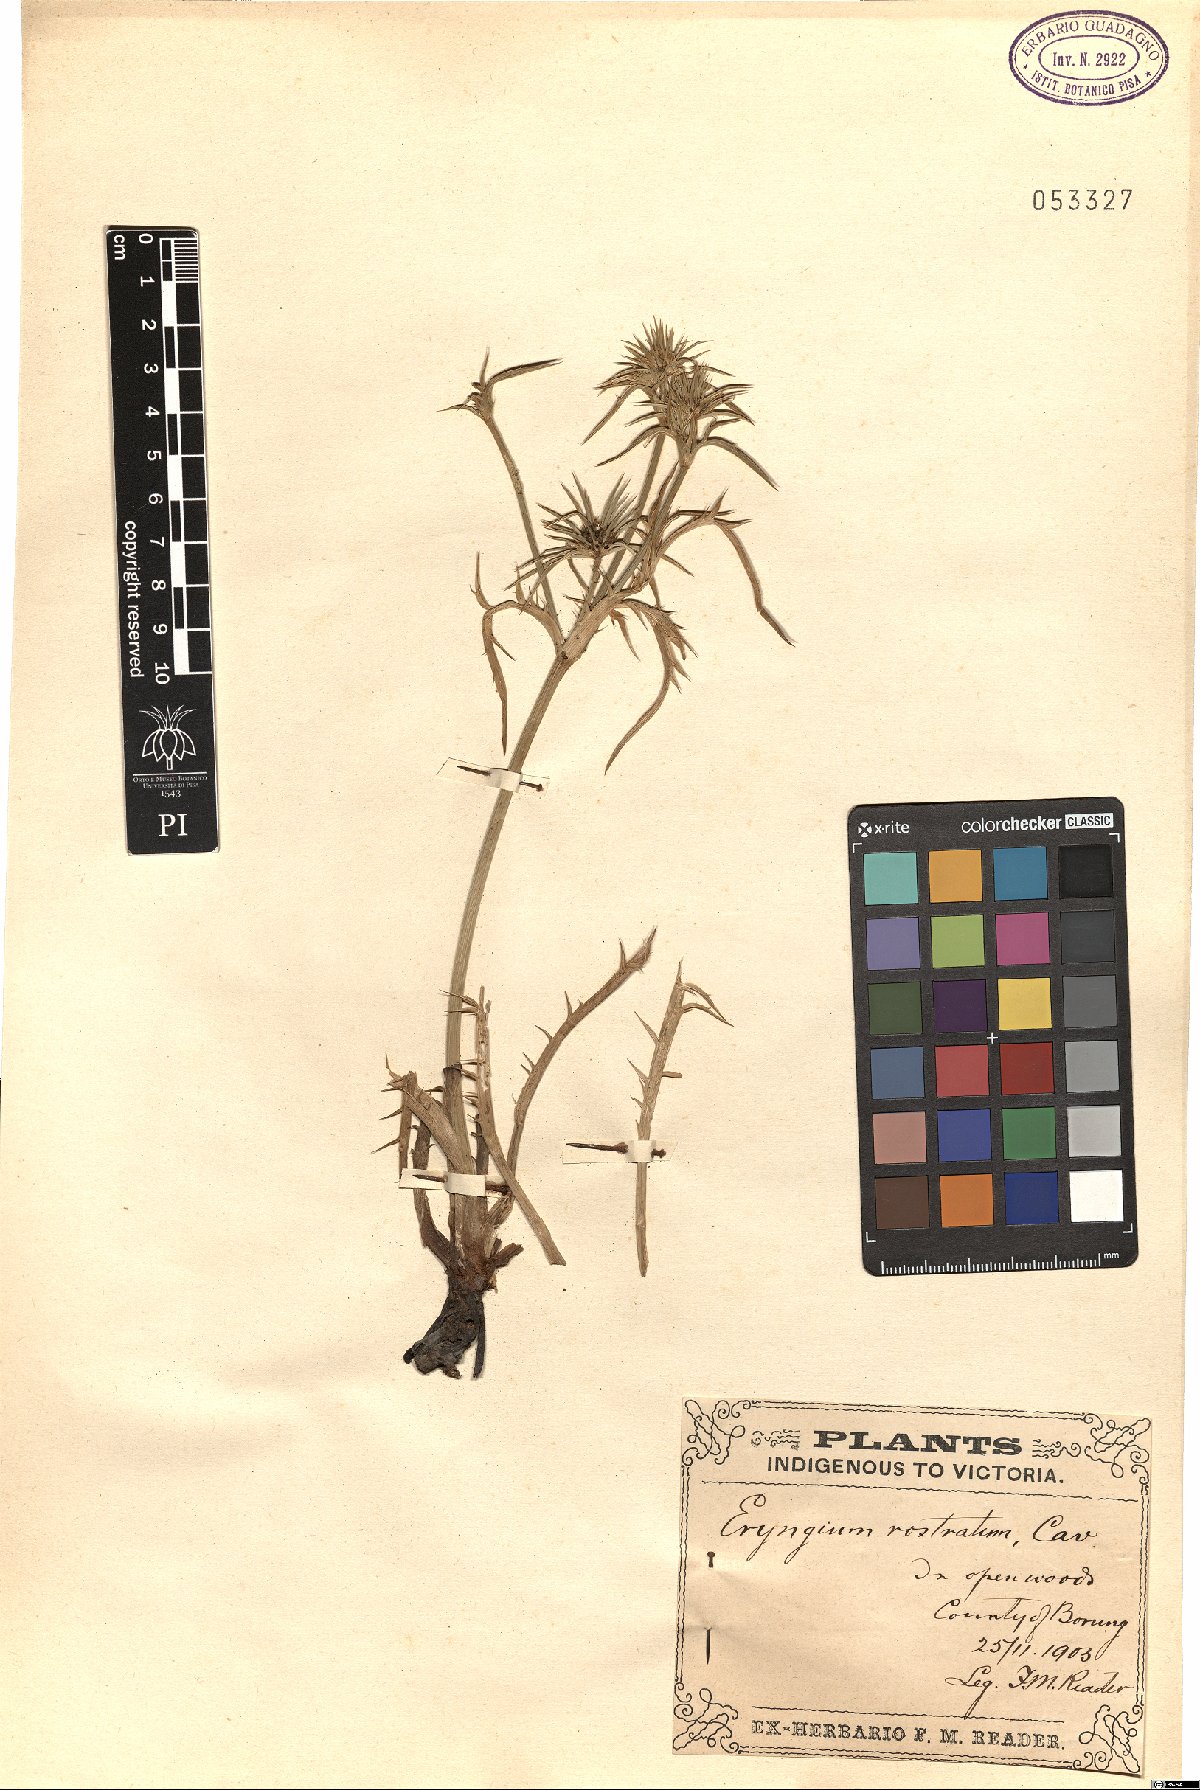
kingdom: Plantae
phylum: Tracheophyta
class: Magnoliopsida
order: Apiales
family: Apiaceae
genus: Eryngium
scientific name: Eryngium rostratum
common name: Blue eryngo
